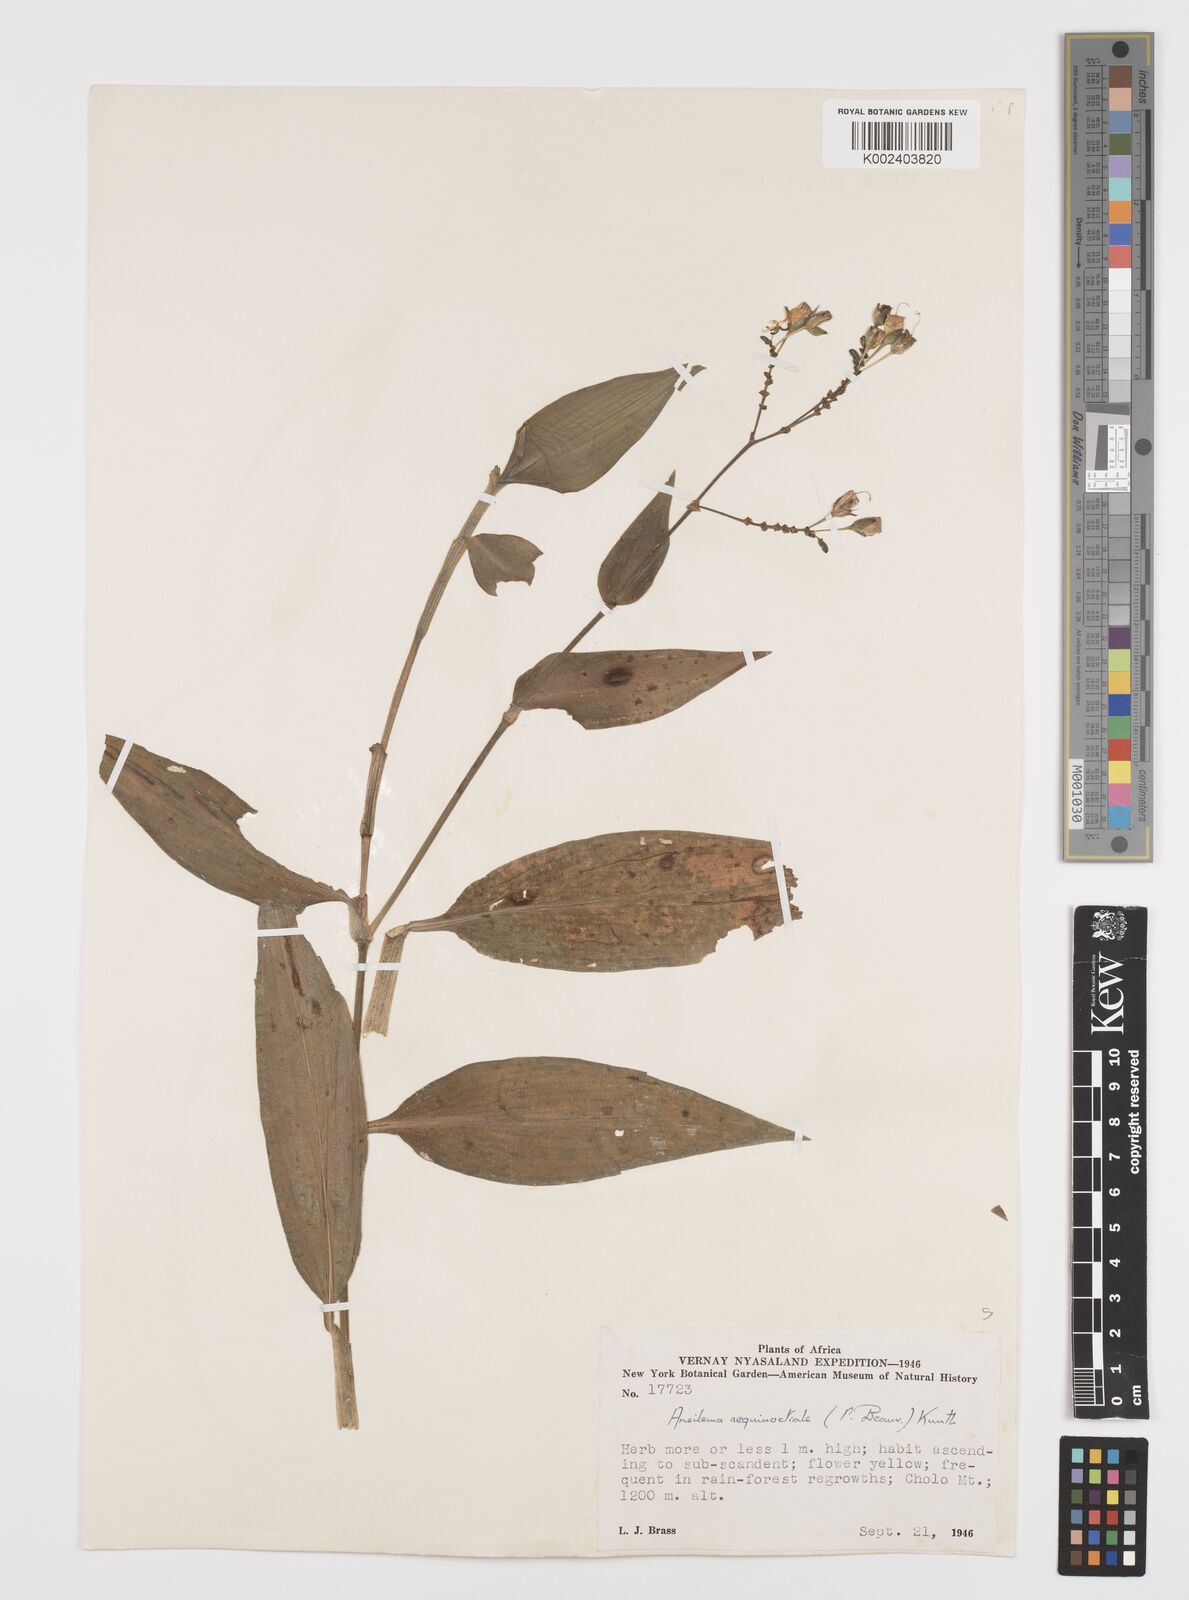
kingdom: Plantae
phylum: Tracheophyta
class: Liliopsida
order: Commelinales
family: Commelinaceae
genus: Aneilema
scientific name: Aneilema aequinoctiale
